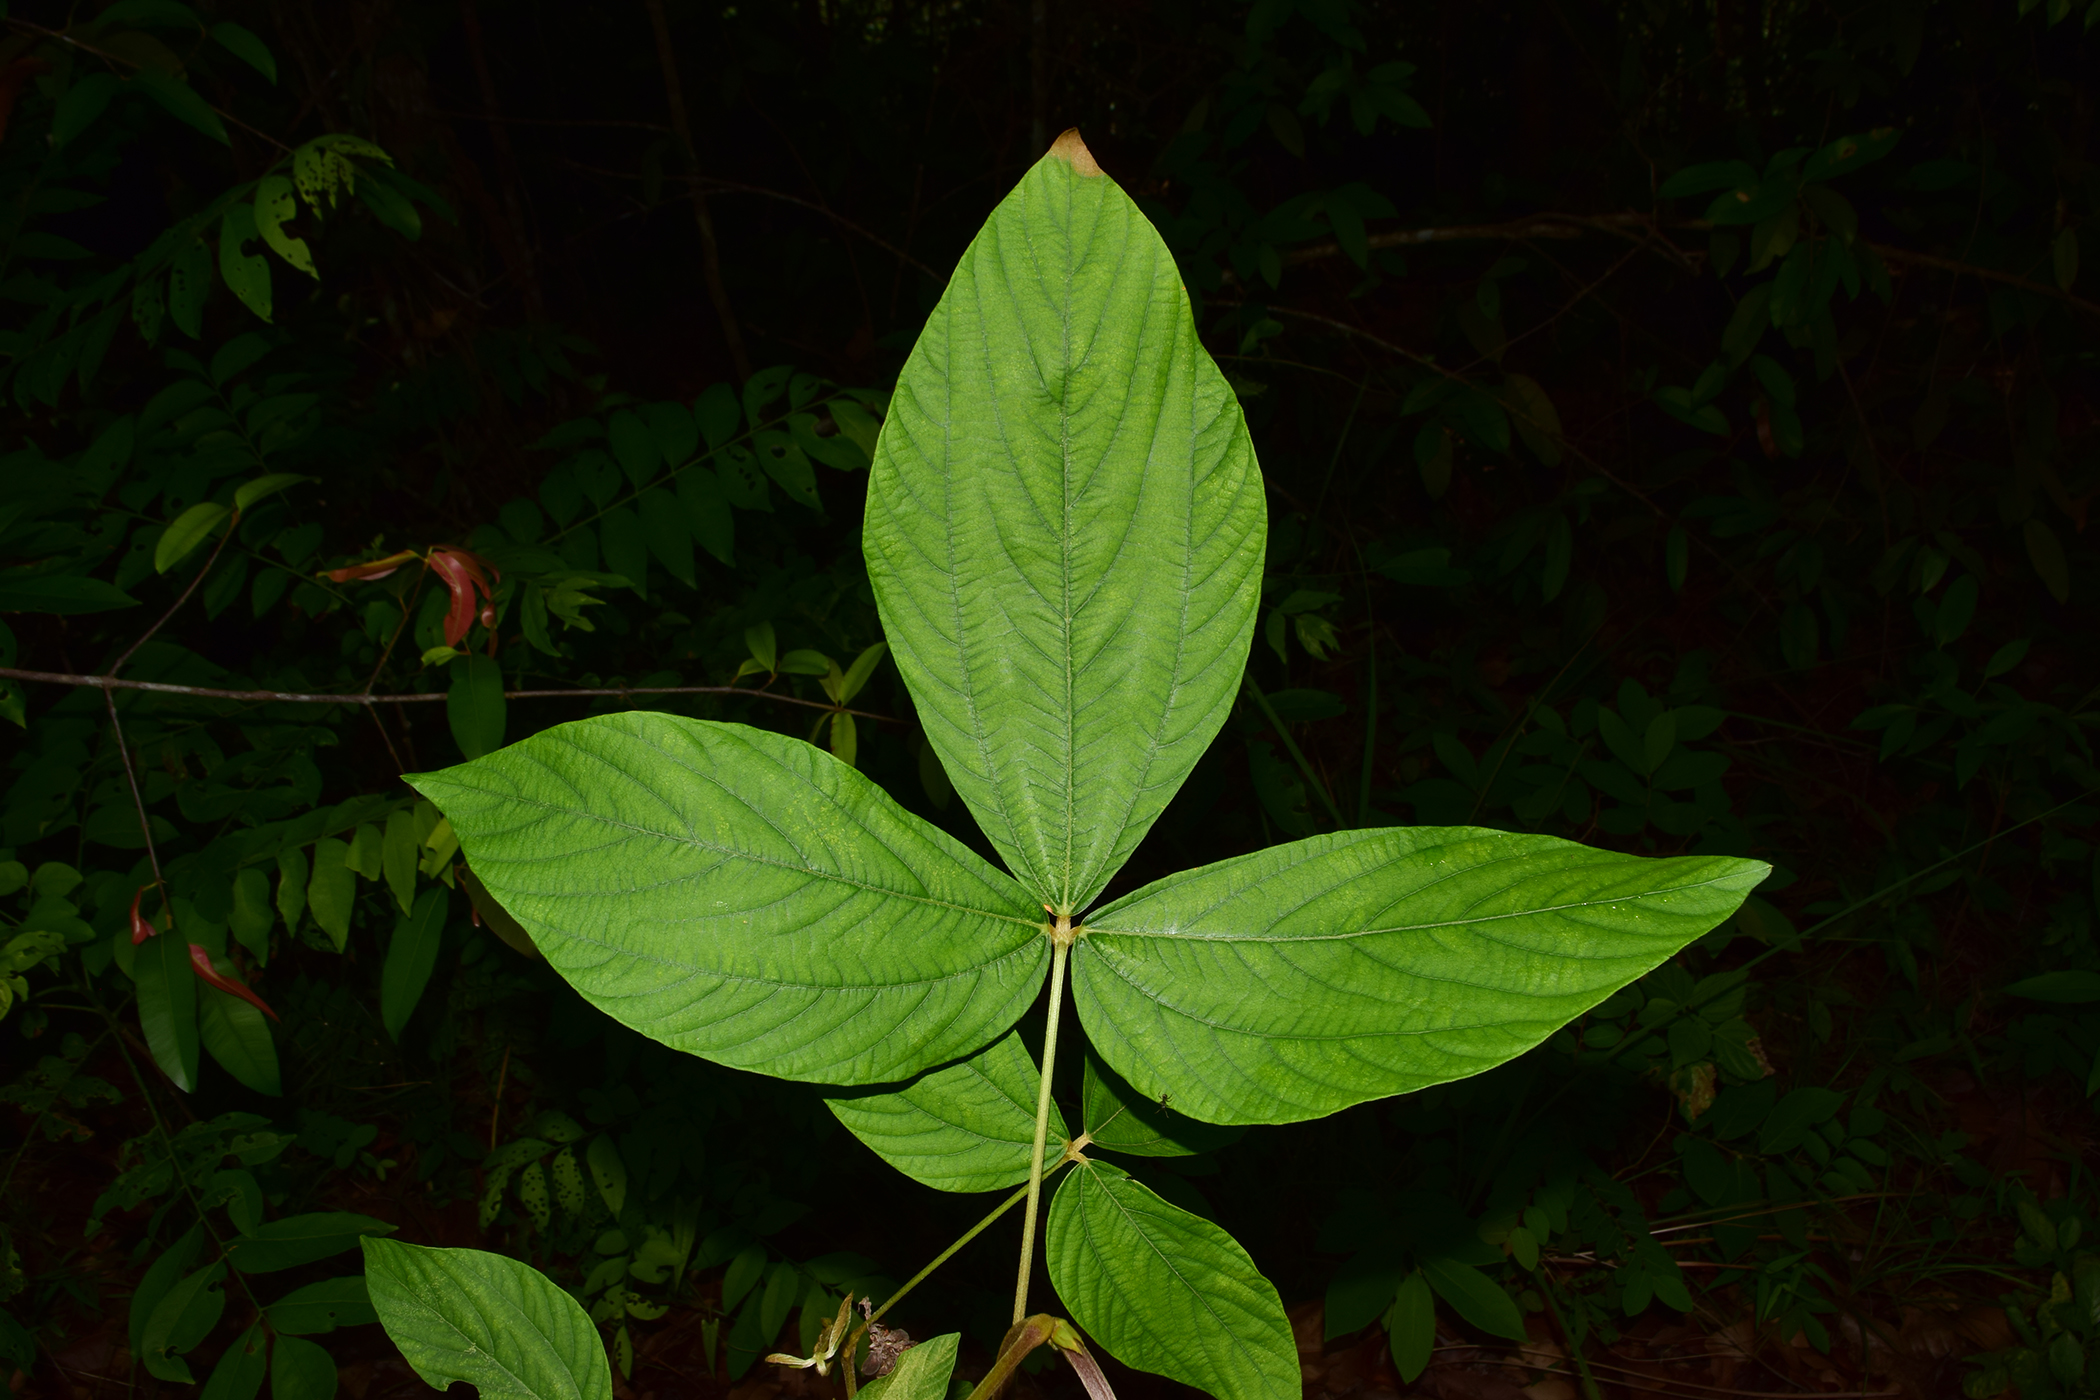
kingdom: Plantae
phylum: Tracheophyta
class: Magnoliopsida
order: Fabales
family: Fabaceae
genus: Flemingia
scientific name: Flemingia macrophylla
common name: Flemingia
